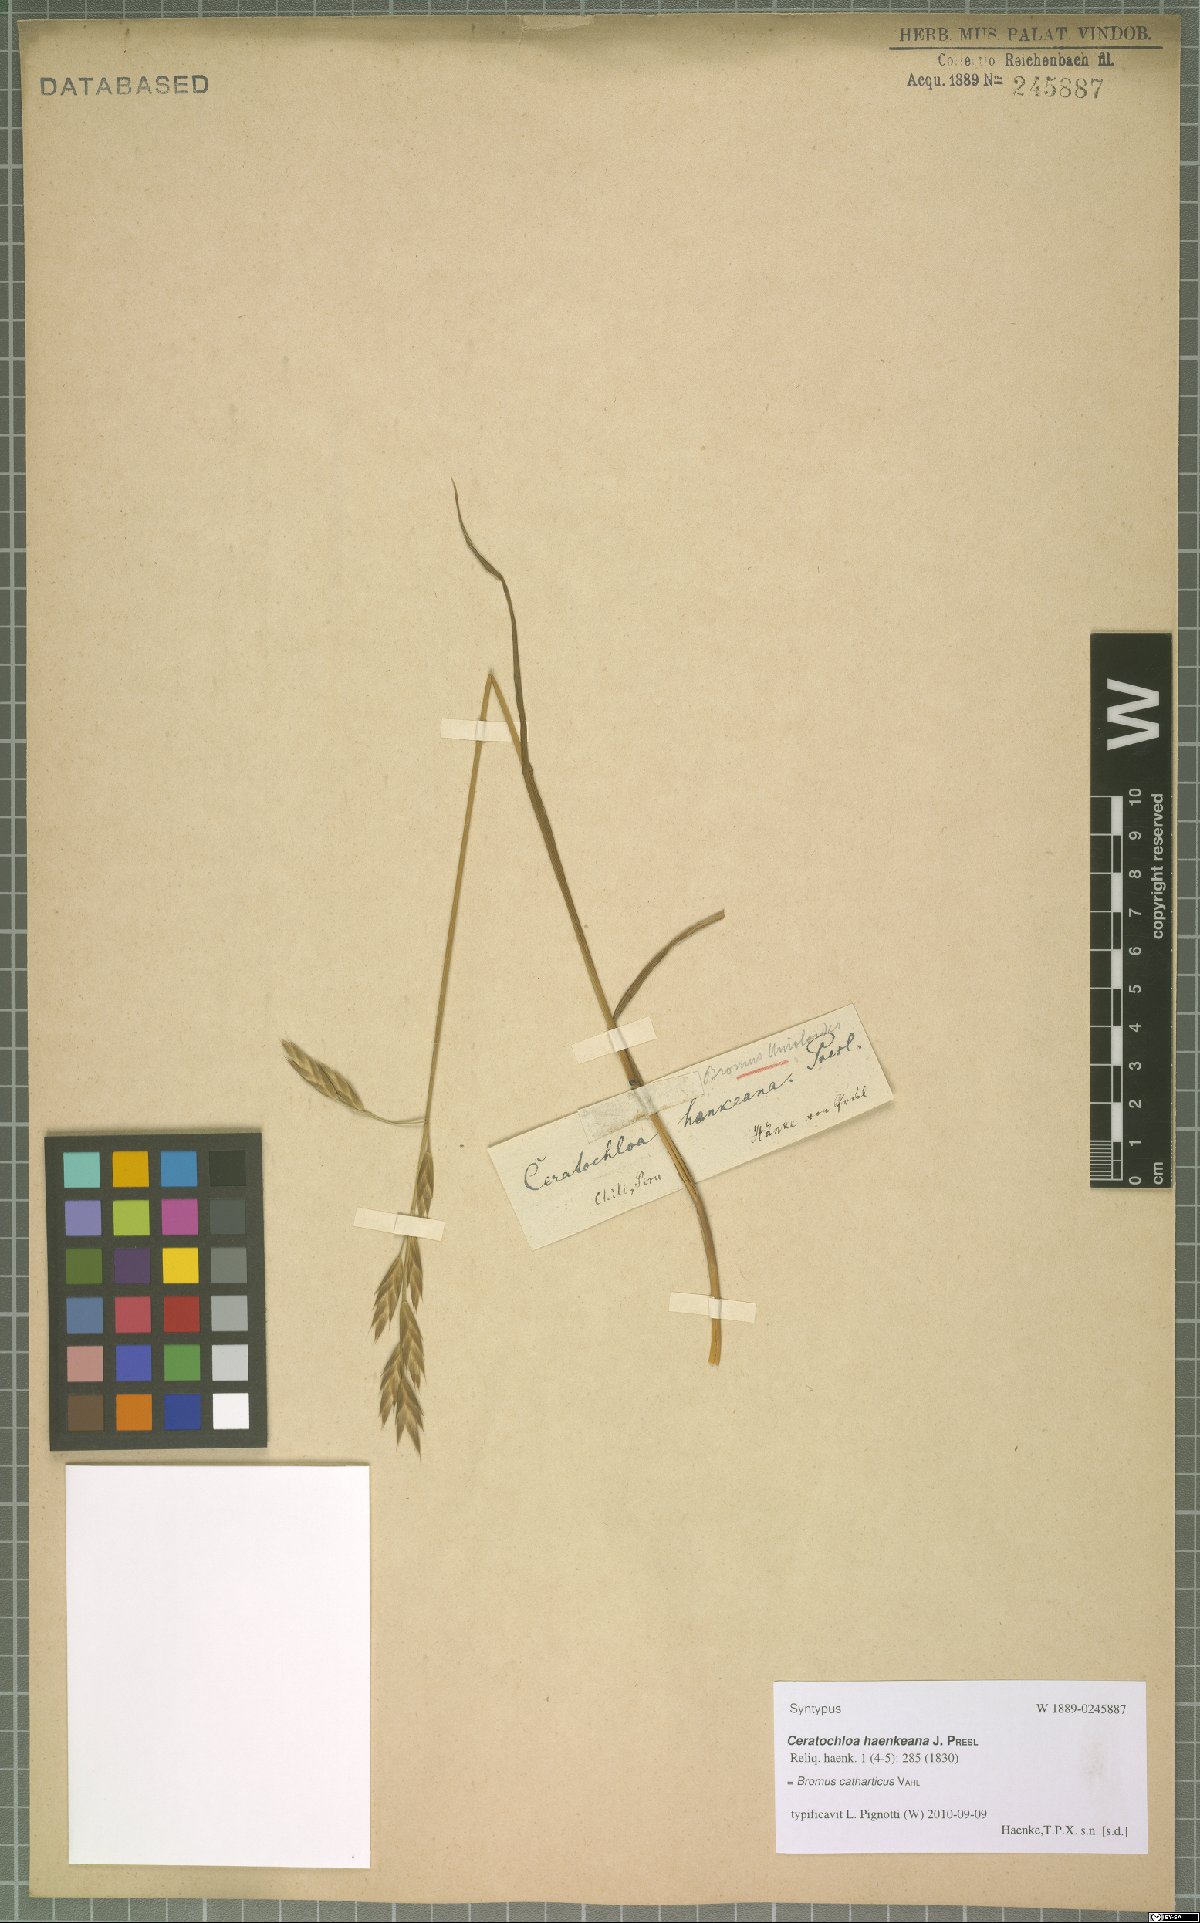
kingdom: Plantae
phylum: Tracheophyta
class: Liliopsida
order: Poales
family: Poaceae
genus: Bromus
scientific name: Bromus catharticus
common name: Rescuegrass
